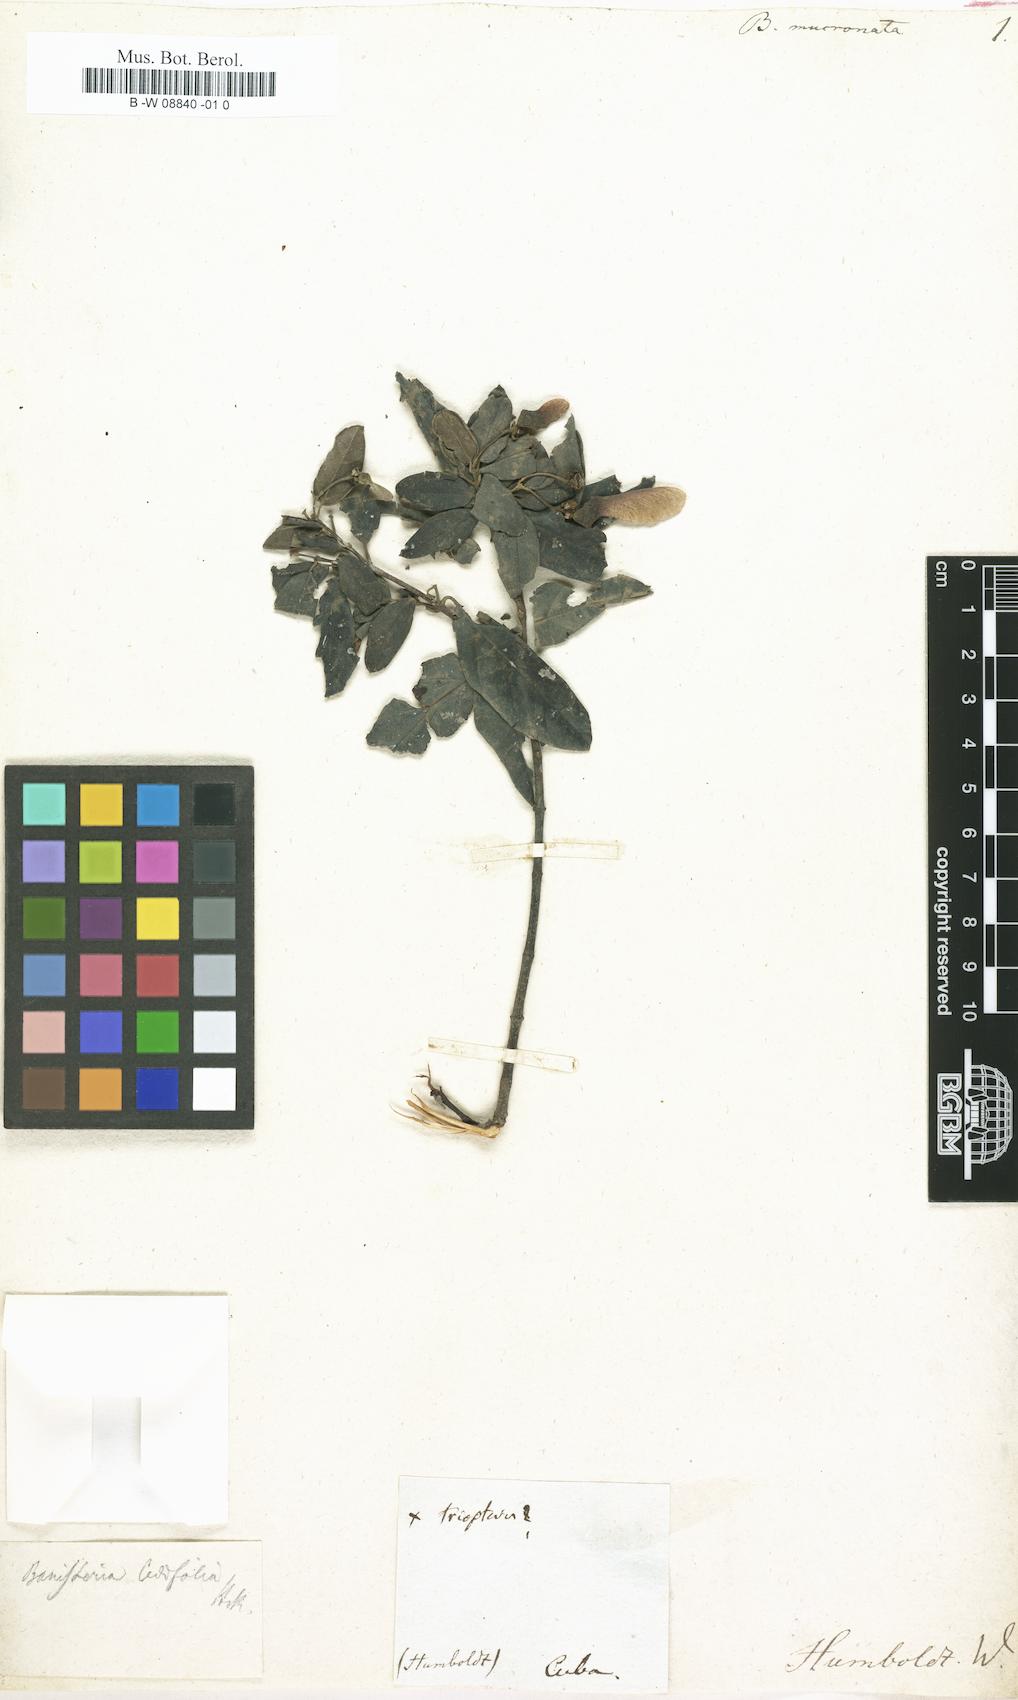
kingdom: Plantae
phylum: Tracheophyta
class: Magnoliopsida
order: Malpighiales
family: Malpighiaceae
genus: Stigmaphyllon
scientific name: Stigmaphyllon ellipticum
